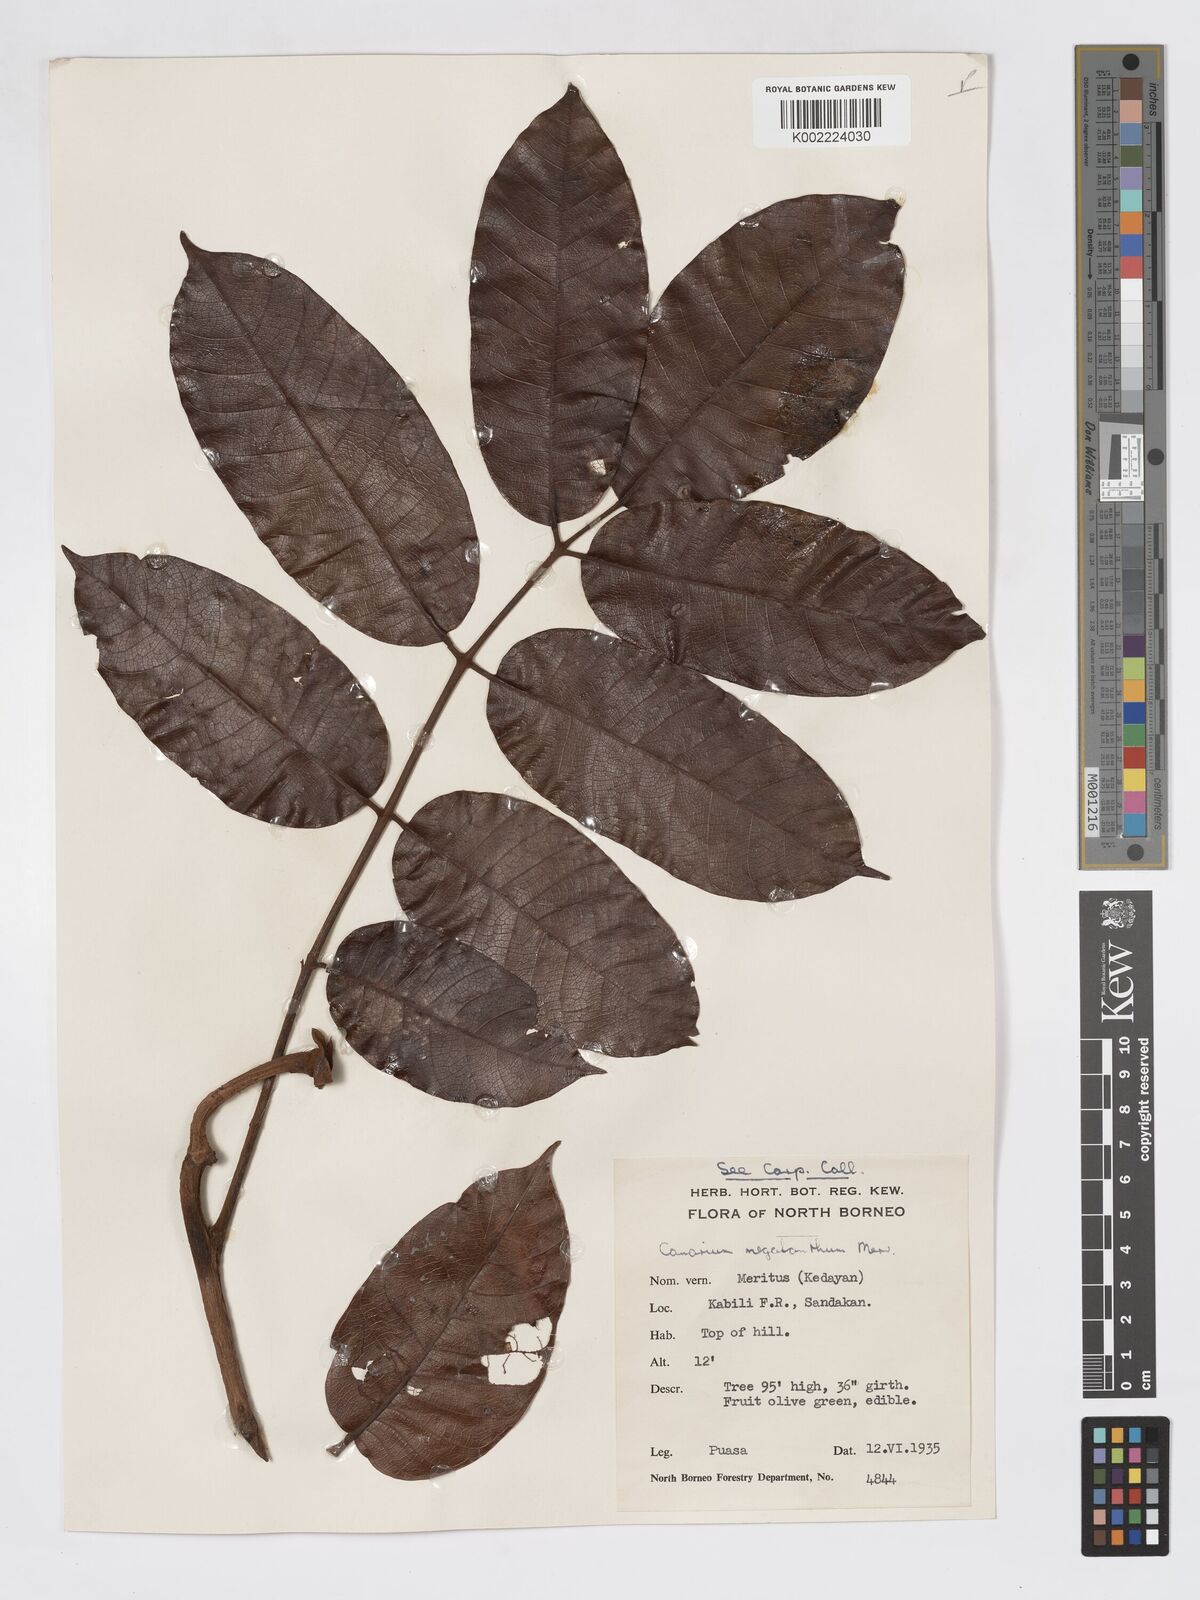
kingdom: Plantae
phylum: Tracheophyta
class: Magnoliopsida
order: Sapindales
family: Burseraceae
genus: Canarium
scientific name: Canarium megalanthum
